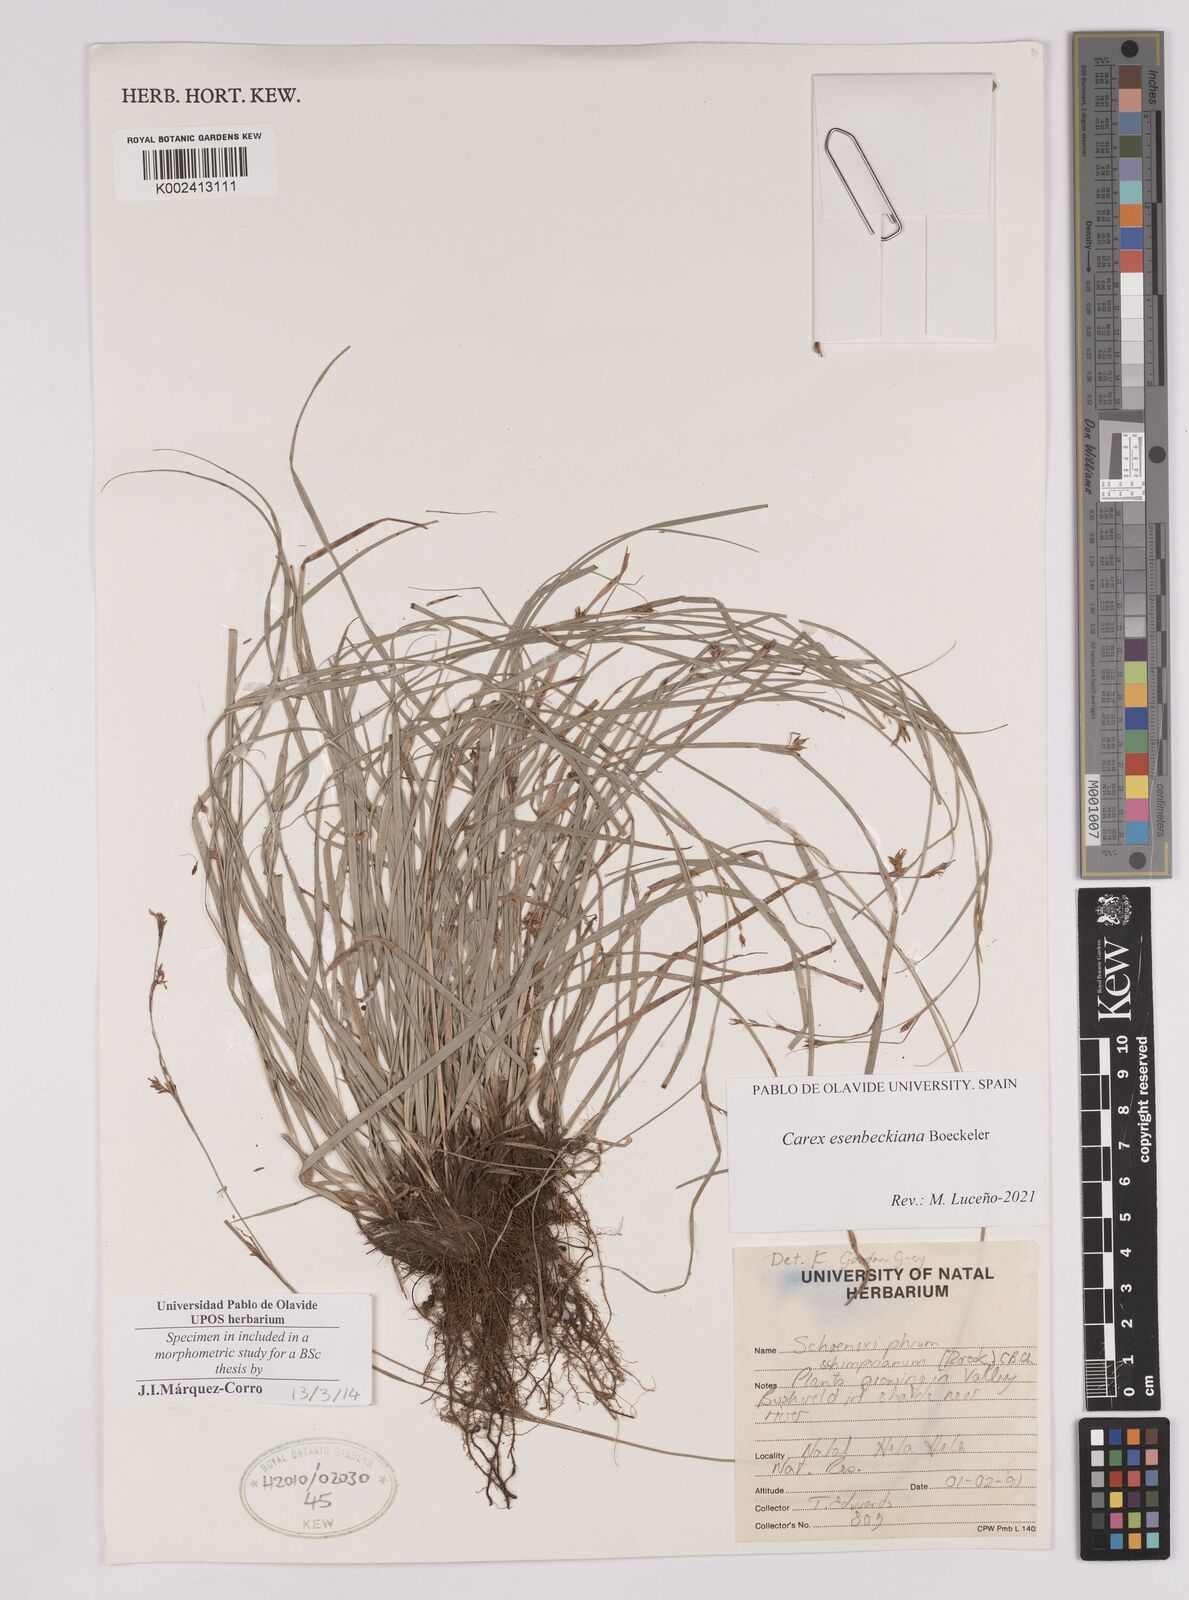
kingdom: Plantae
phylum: Tracheophyta
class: Liliopsida
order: Poales
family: Cyperaceae
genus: Carex
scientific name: Carex kukkoneniana
